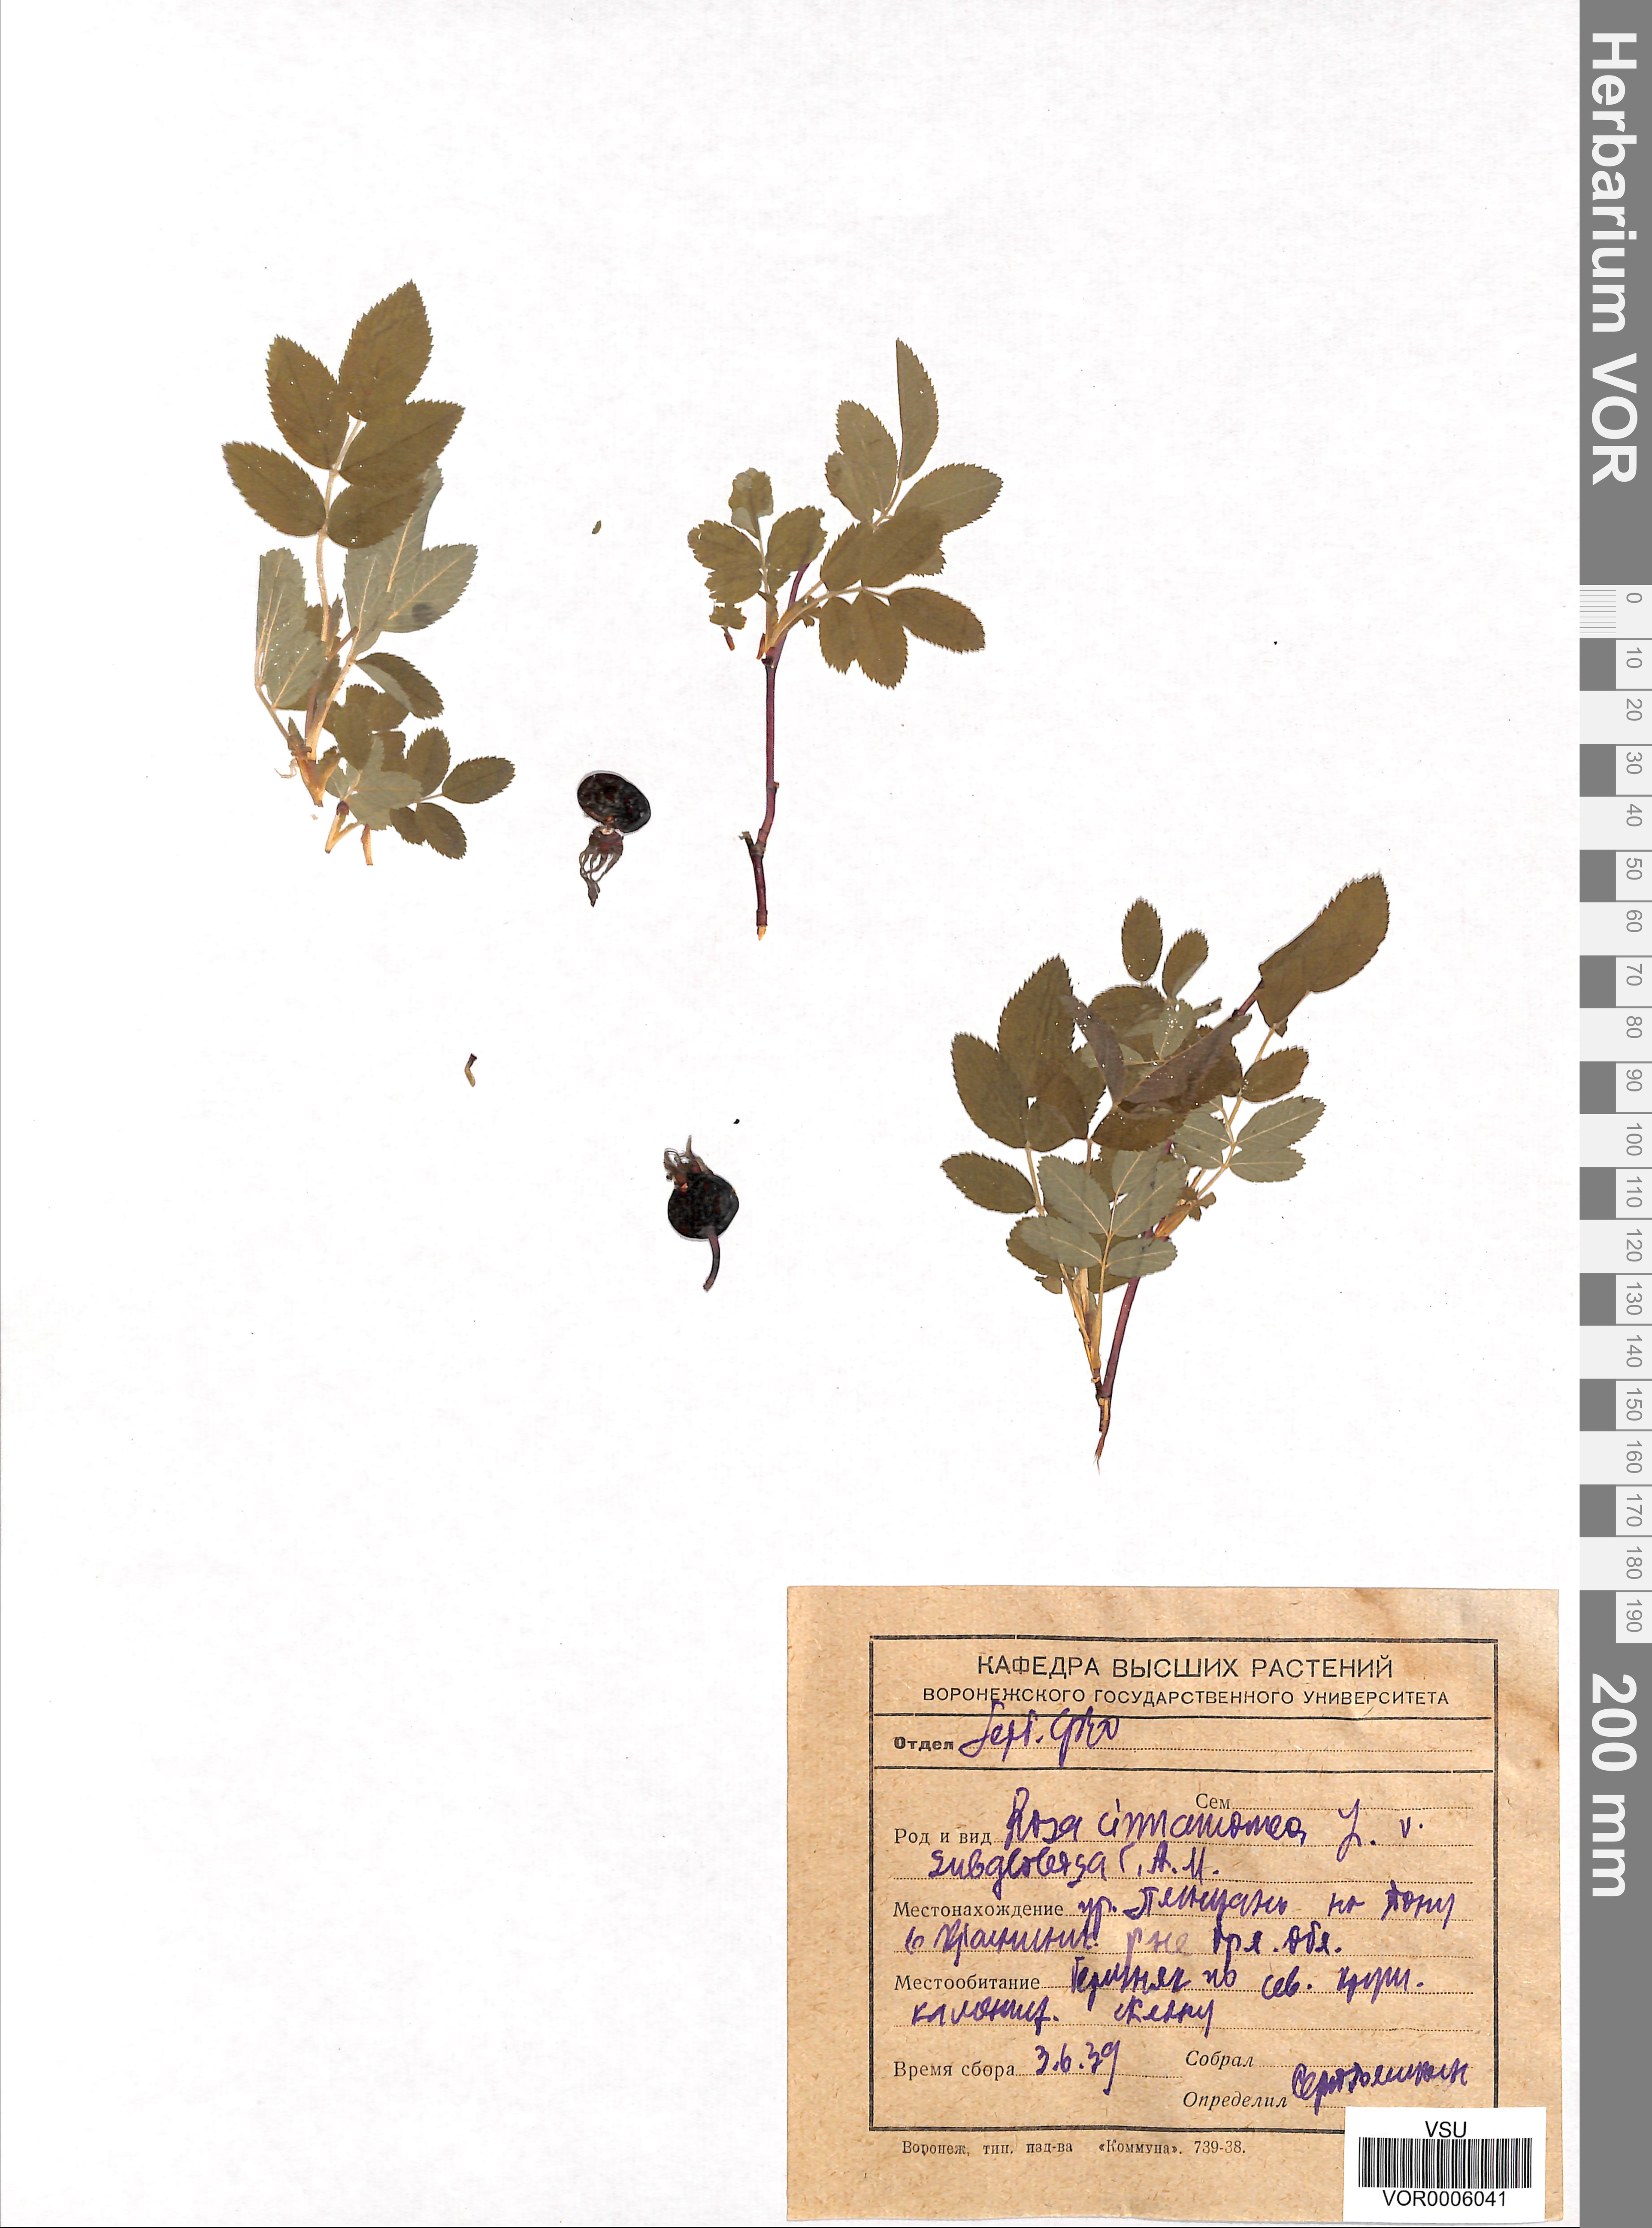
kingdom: Plantae
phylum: Tracheophyta
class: Magnoliopsida
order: Rosales
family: Rosaceae
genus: Rosa
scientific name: Rosa majalis
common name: Cinnamon rose
